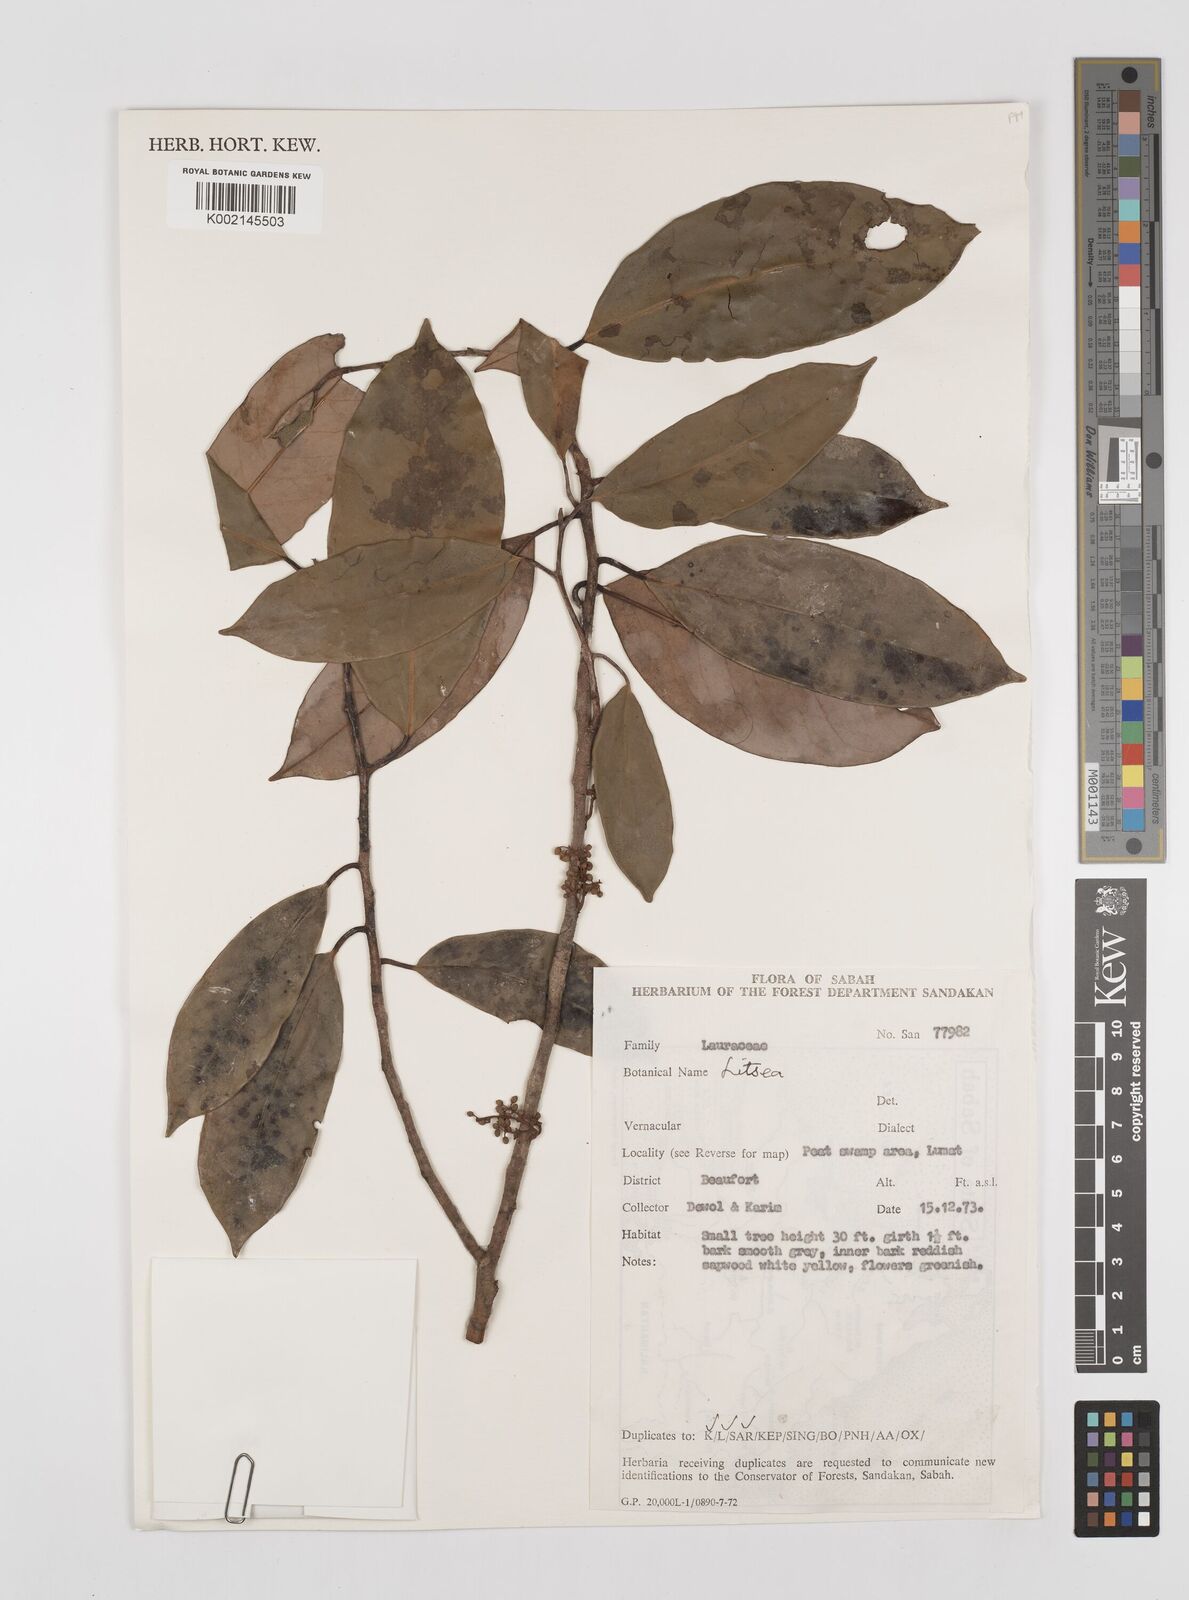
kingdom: Plantae
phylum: Tracheophyta
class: Magnoliopsida
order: Laurales
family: Lauraceae
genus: Litsea
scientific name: Litsea
